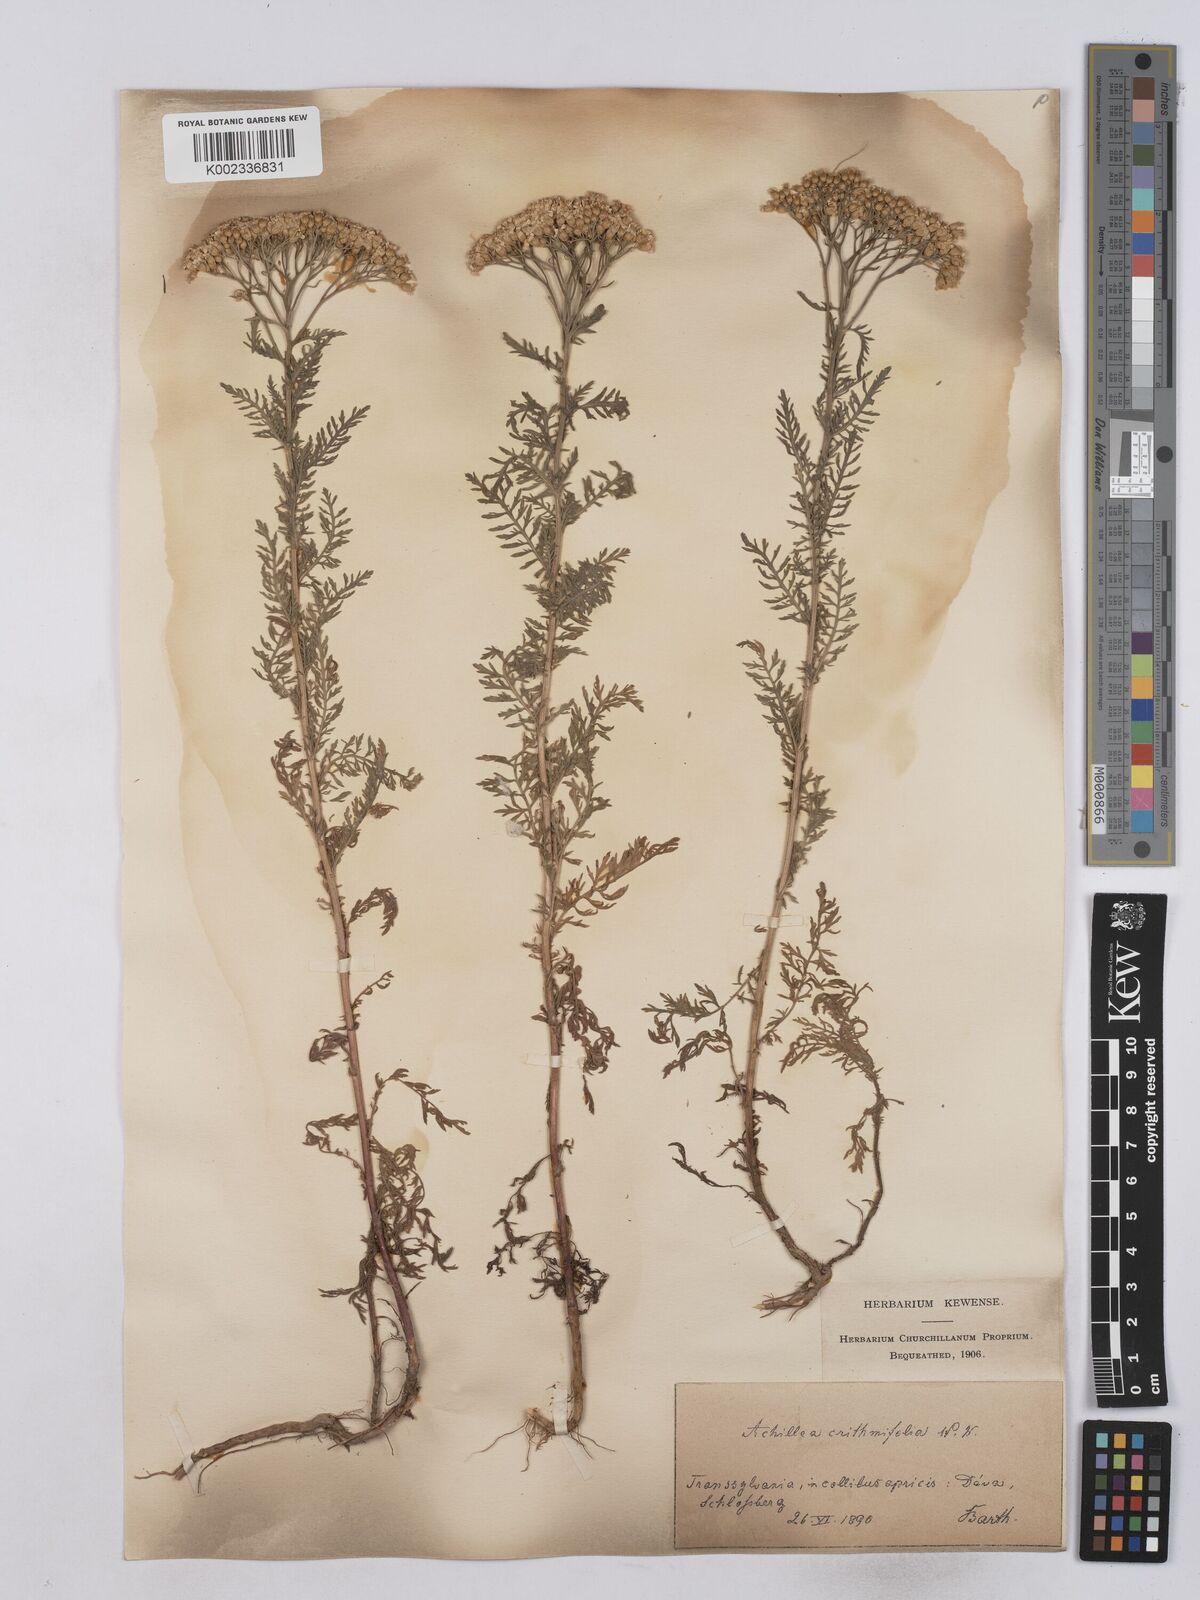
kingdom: Plantae
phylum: Tracheophyta
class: Magnoliopsida
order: Asterales
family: Asteraceae
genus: Achillea
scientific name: Achillea crithmifolia
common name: Yarrow
